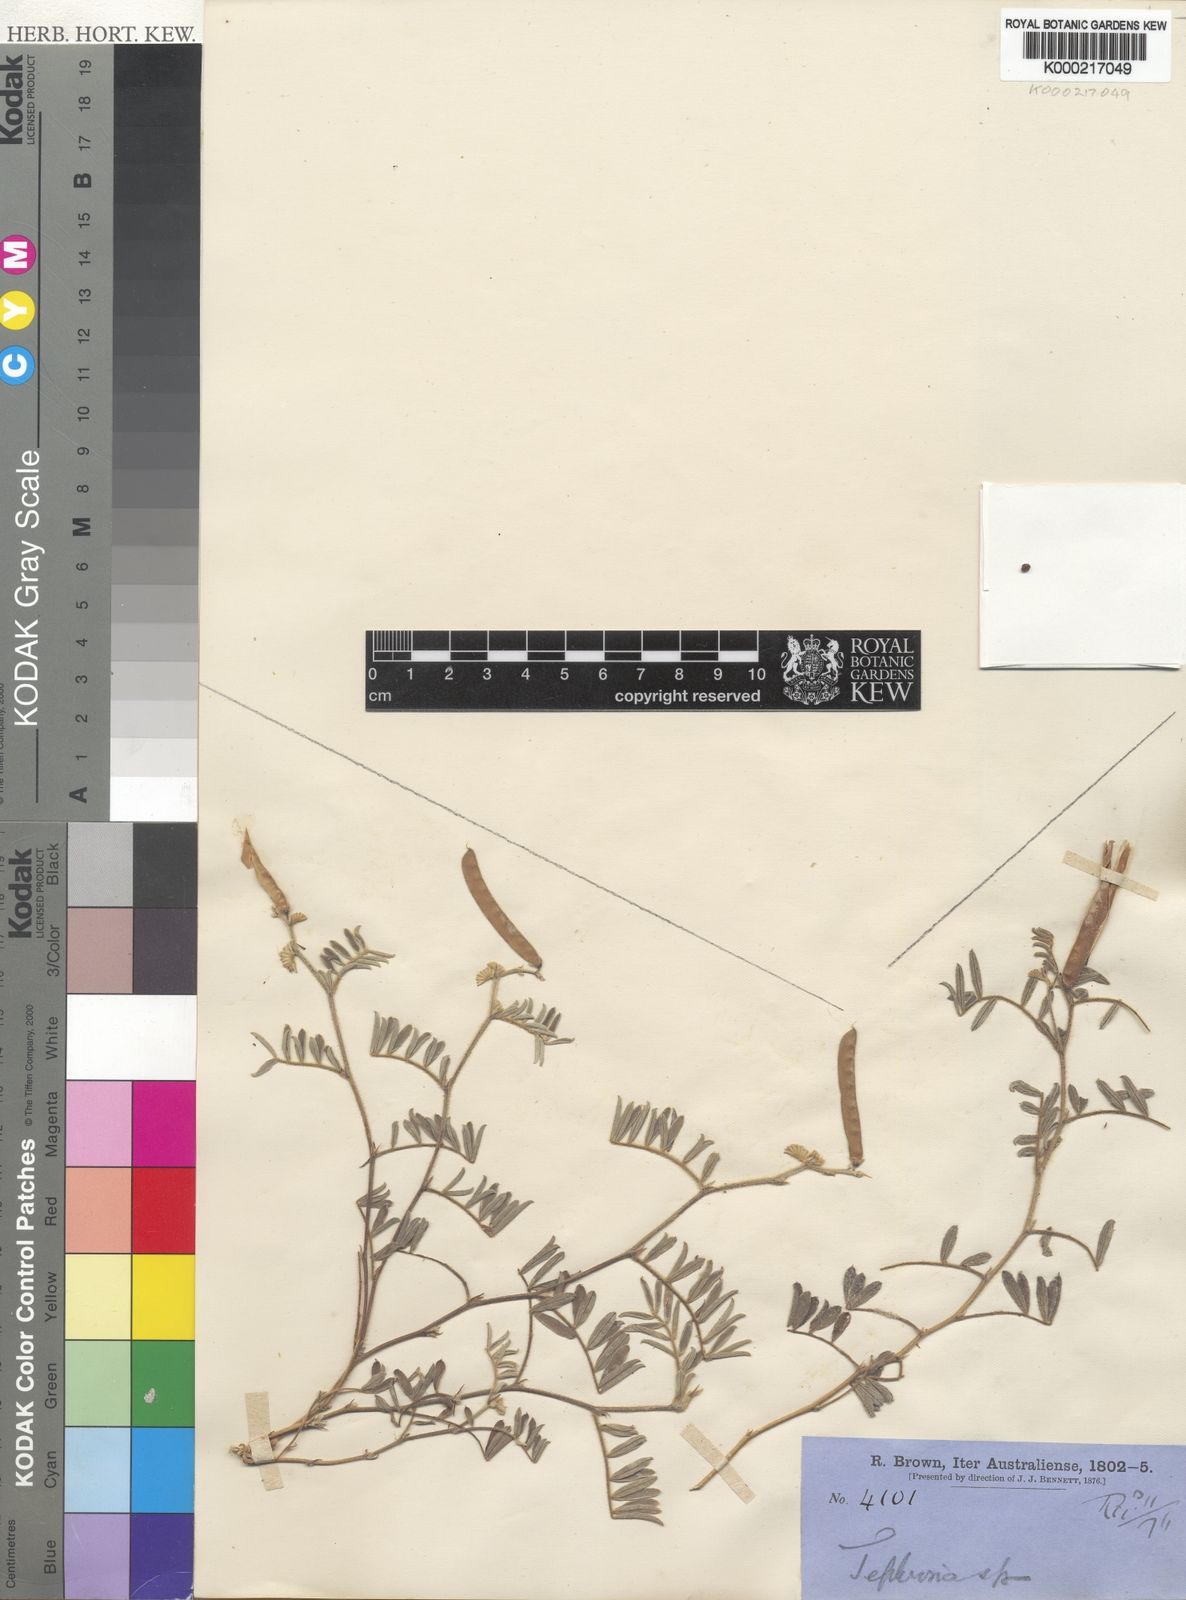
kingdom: Plantae
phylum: Tracheophyta
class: Magnoliopsida
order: Fabales
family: Fabaceae
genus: Tephrosia
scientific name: Tephrosia
